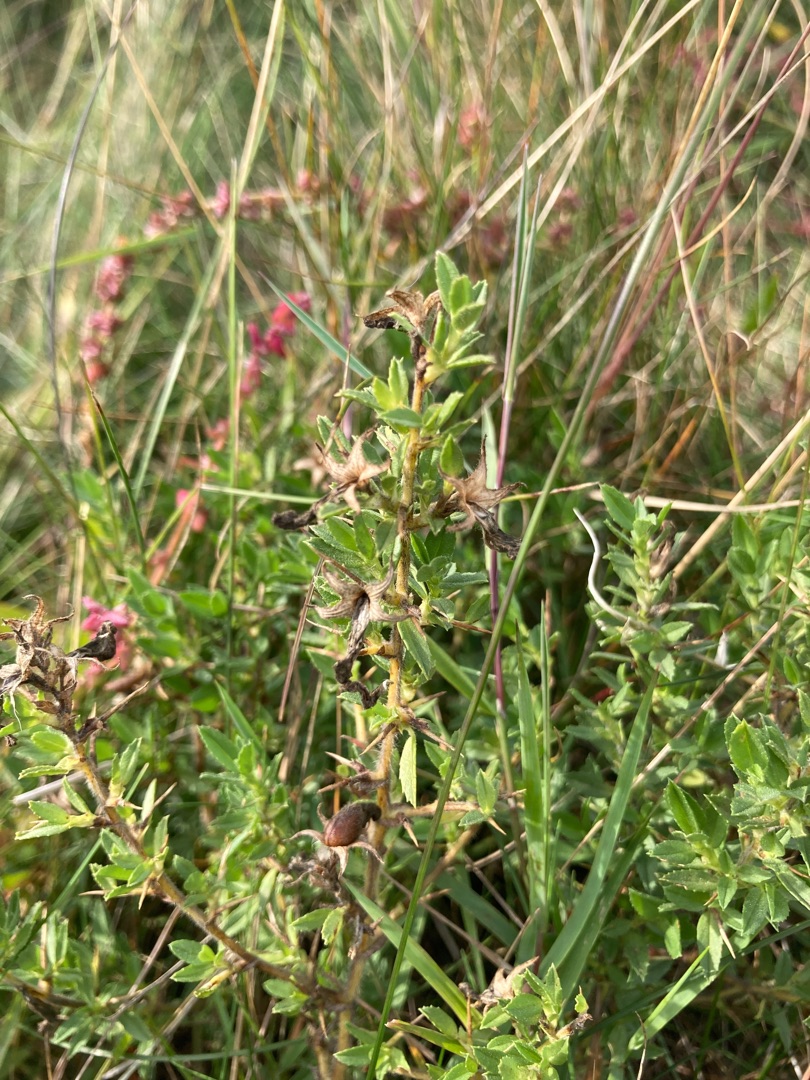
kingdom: Plantae
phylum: Tracheophyta
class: Magnoliopsida
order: Fabales
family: Fabaceae
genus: Ononis
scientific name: Ononis spinosa
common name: Strand-krageklo
